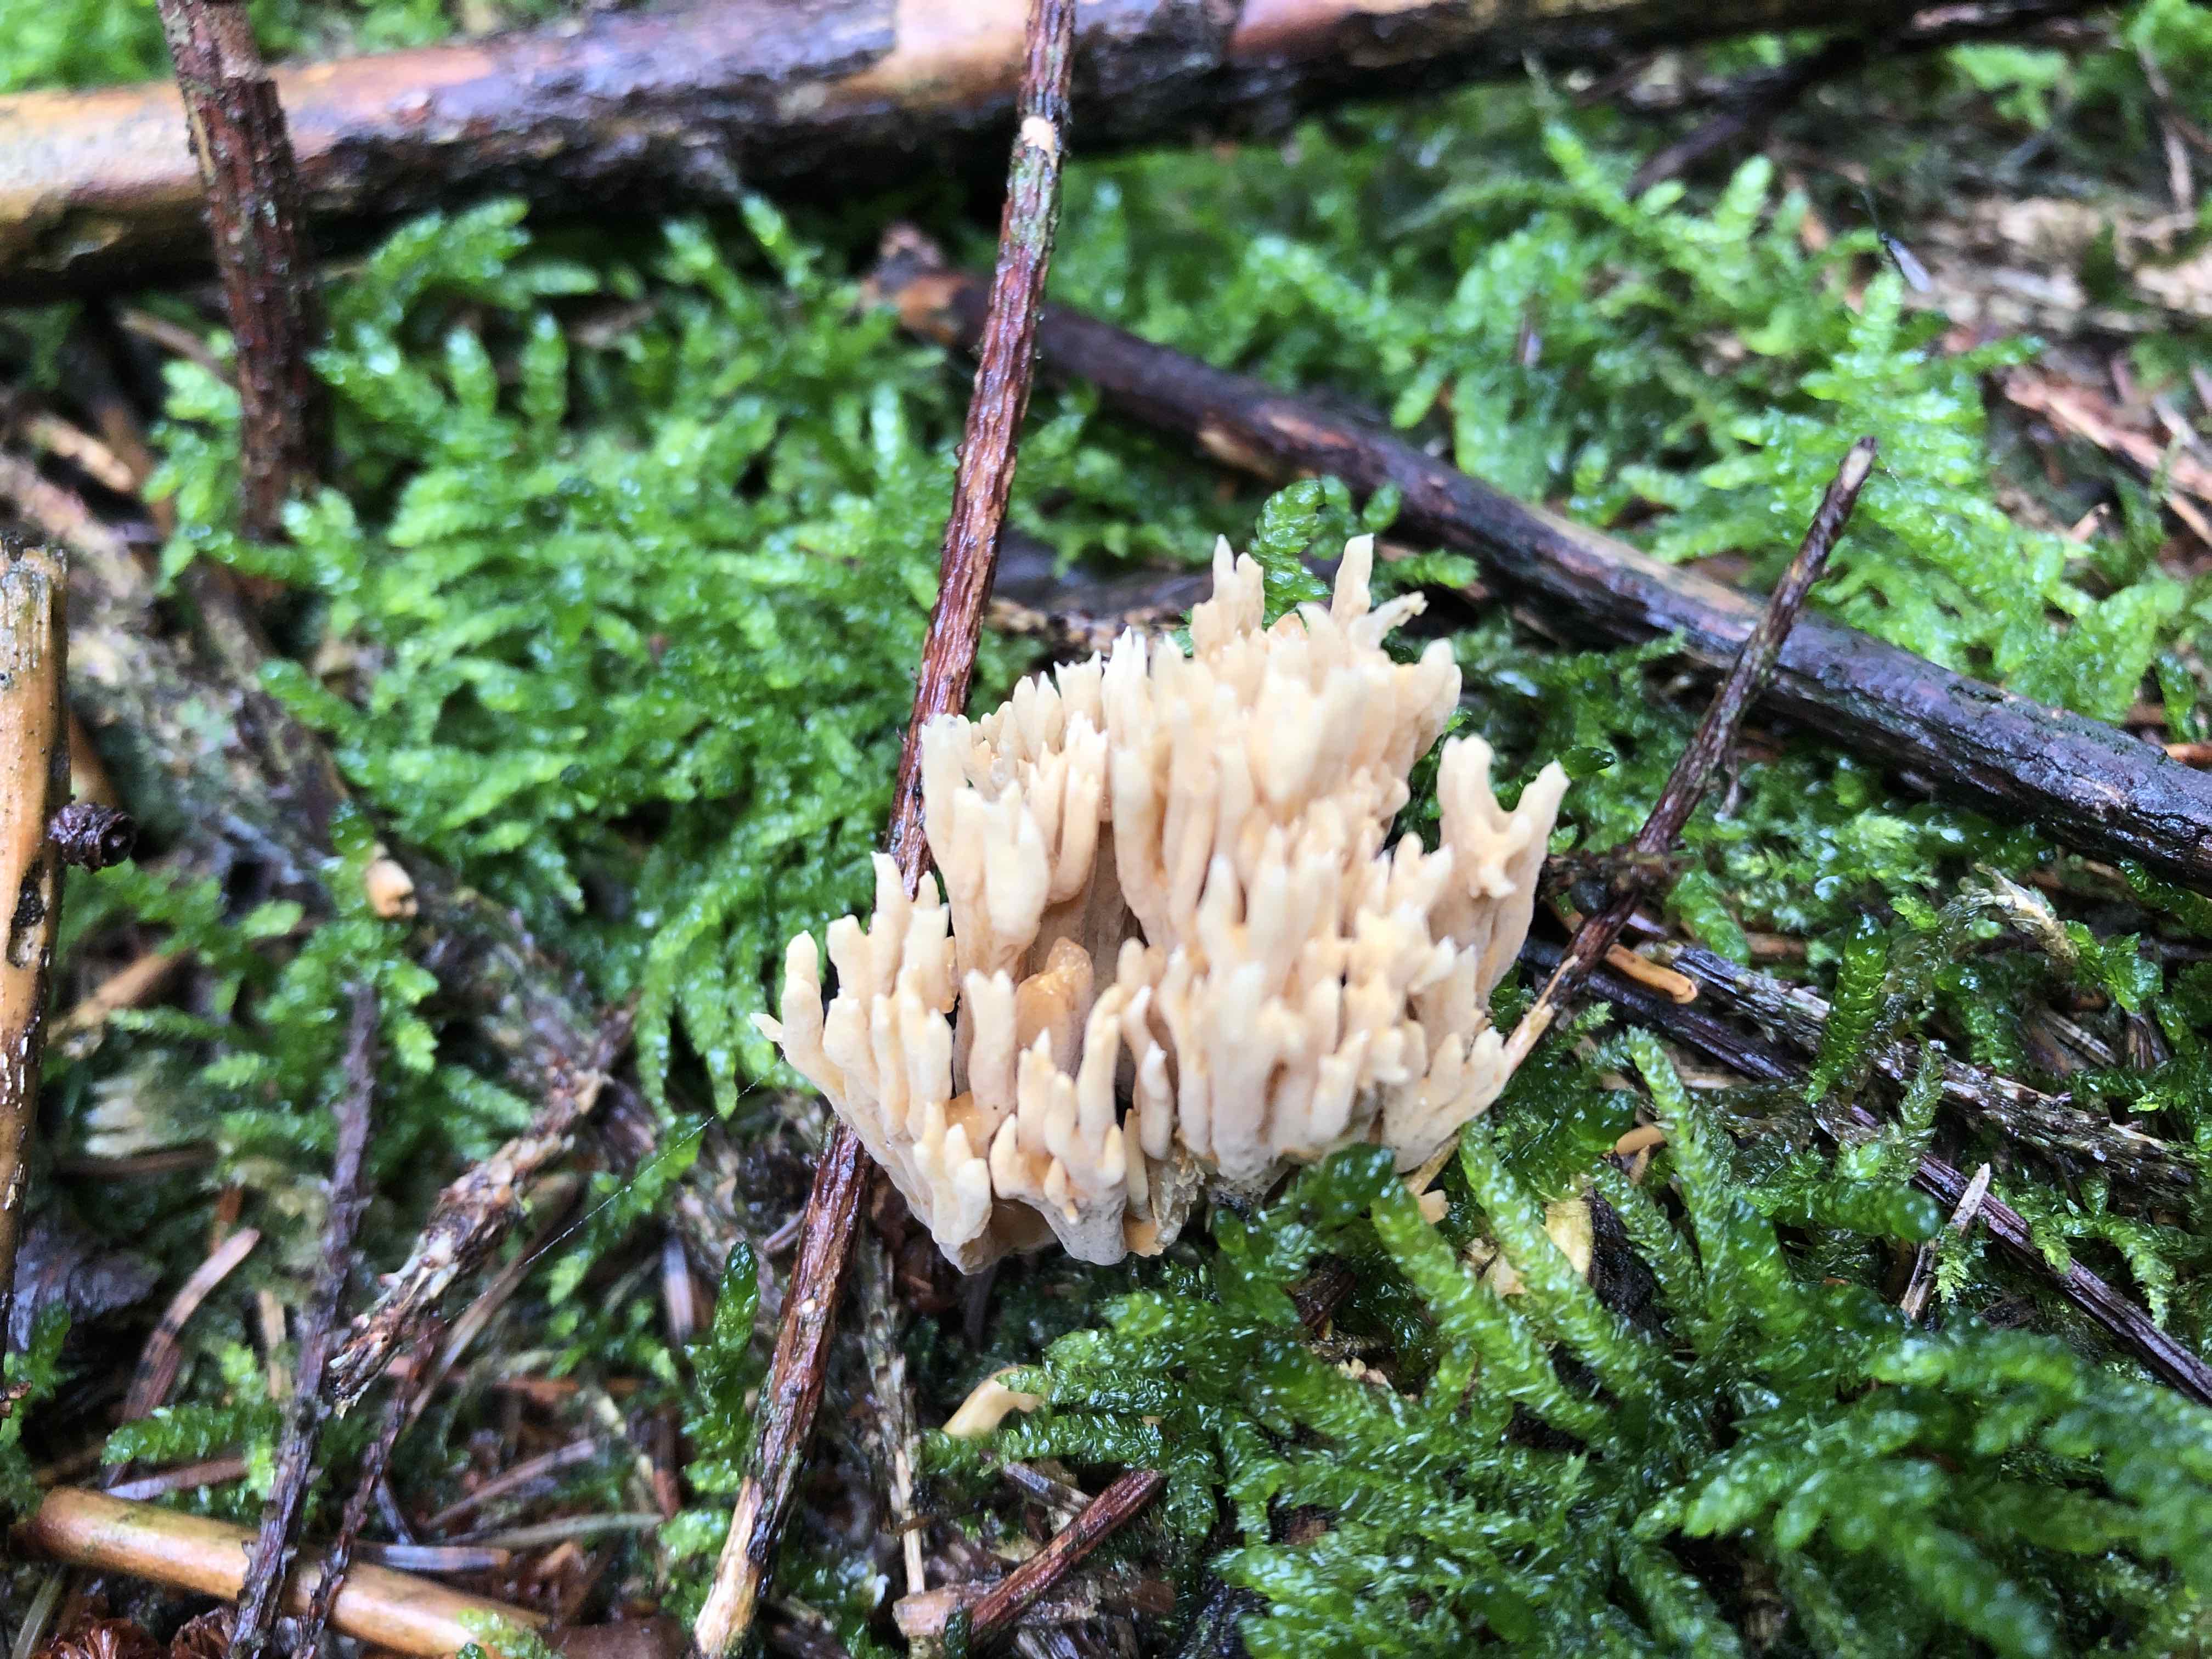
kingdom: Fungi
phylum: Basidiomycota
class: Agaricomycetes
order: Gomphales
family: Gomphaceae
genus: Phaeoclavulina
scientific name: Phaeoclavulina eumorpha
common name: gran-koralsvamp
